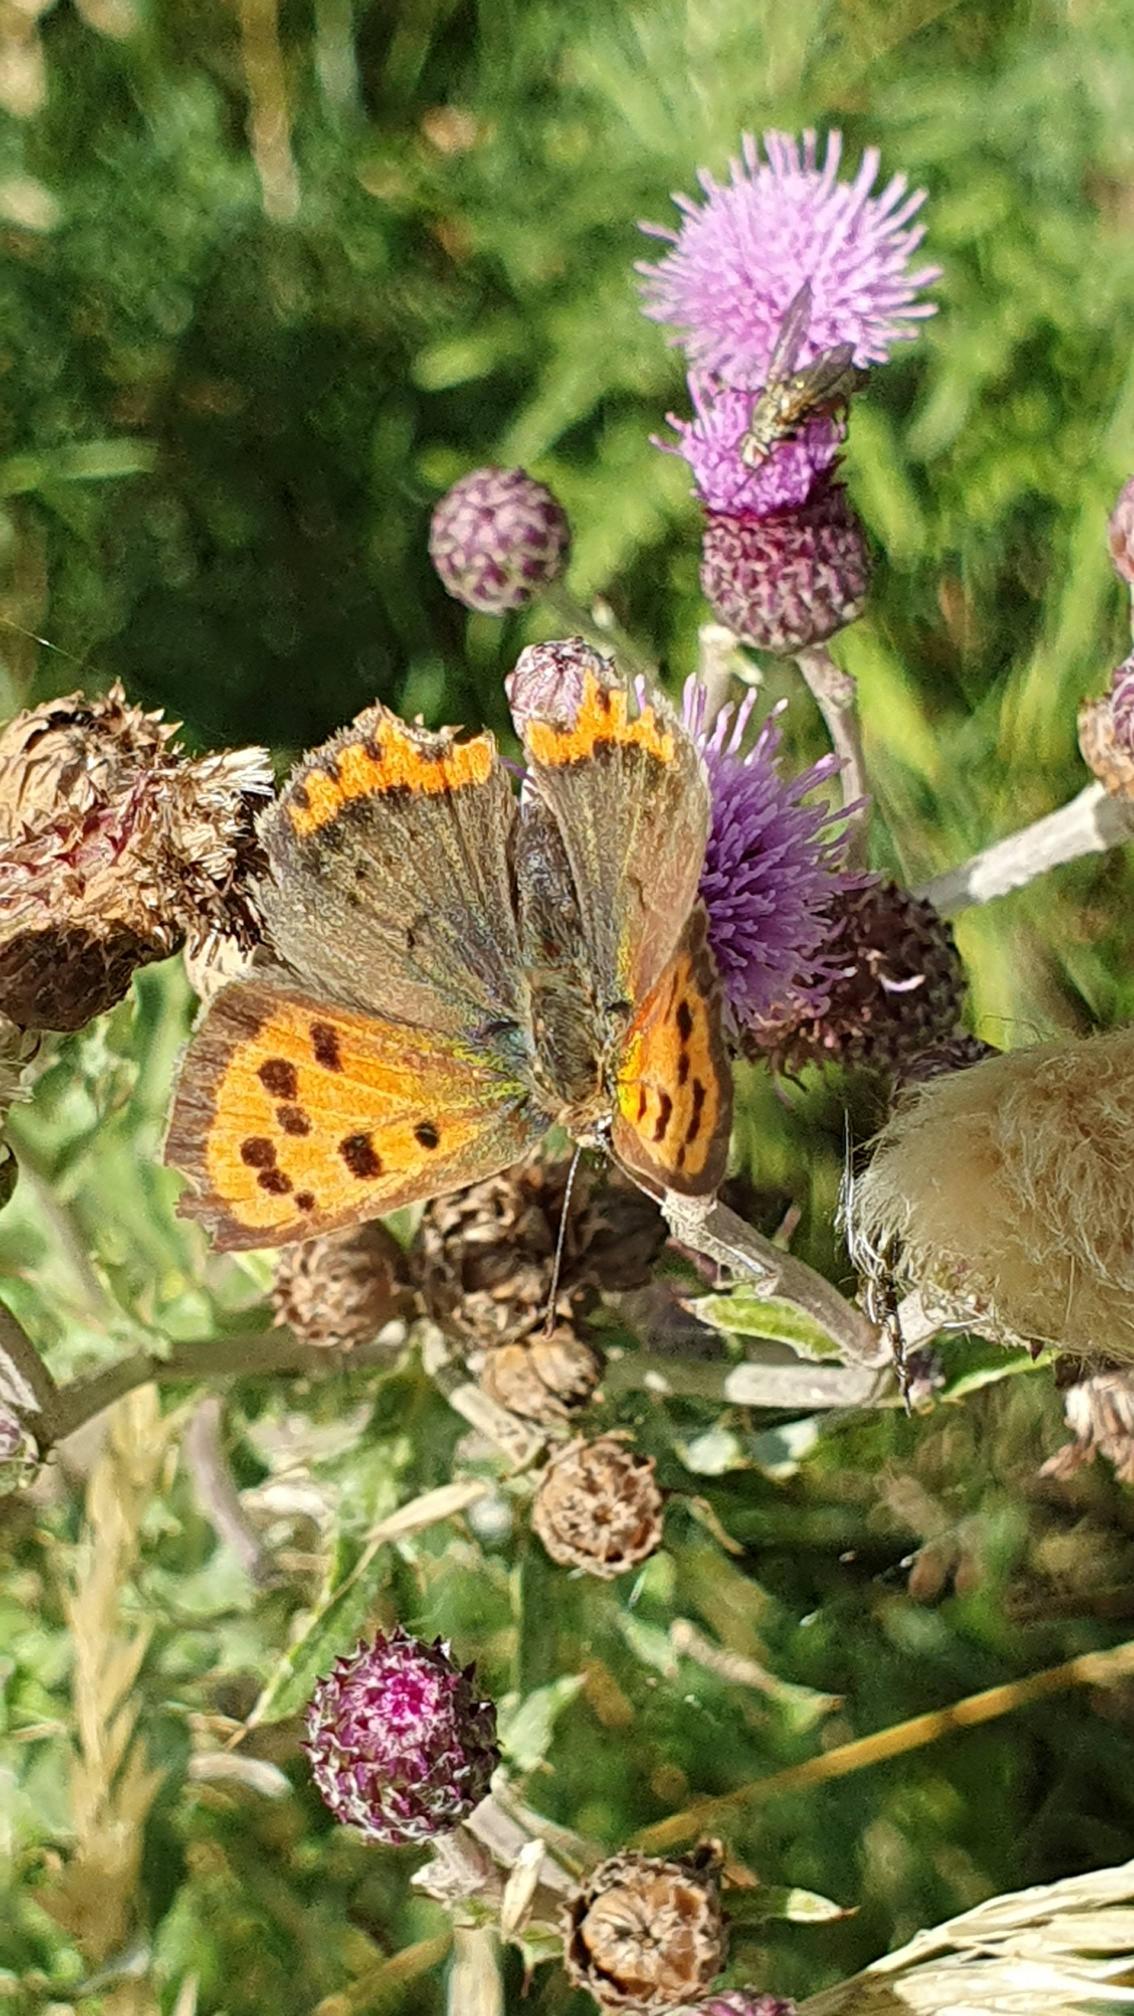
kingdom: Animalia
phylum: Arthropoda
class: Insecta
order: Lepidoptera
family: Lycaenidae
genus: Lycaena
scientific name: Lycaena phlaeas
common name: Lille ildfugl
